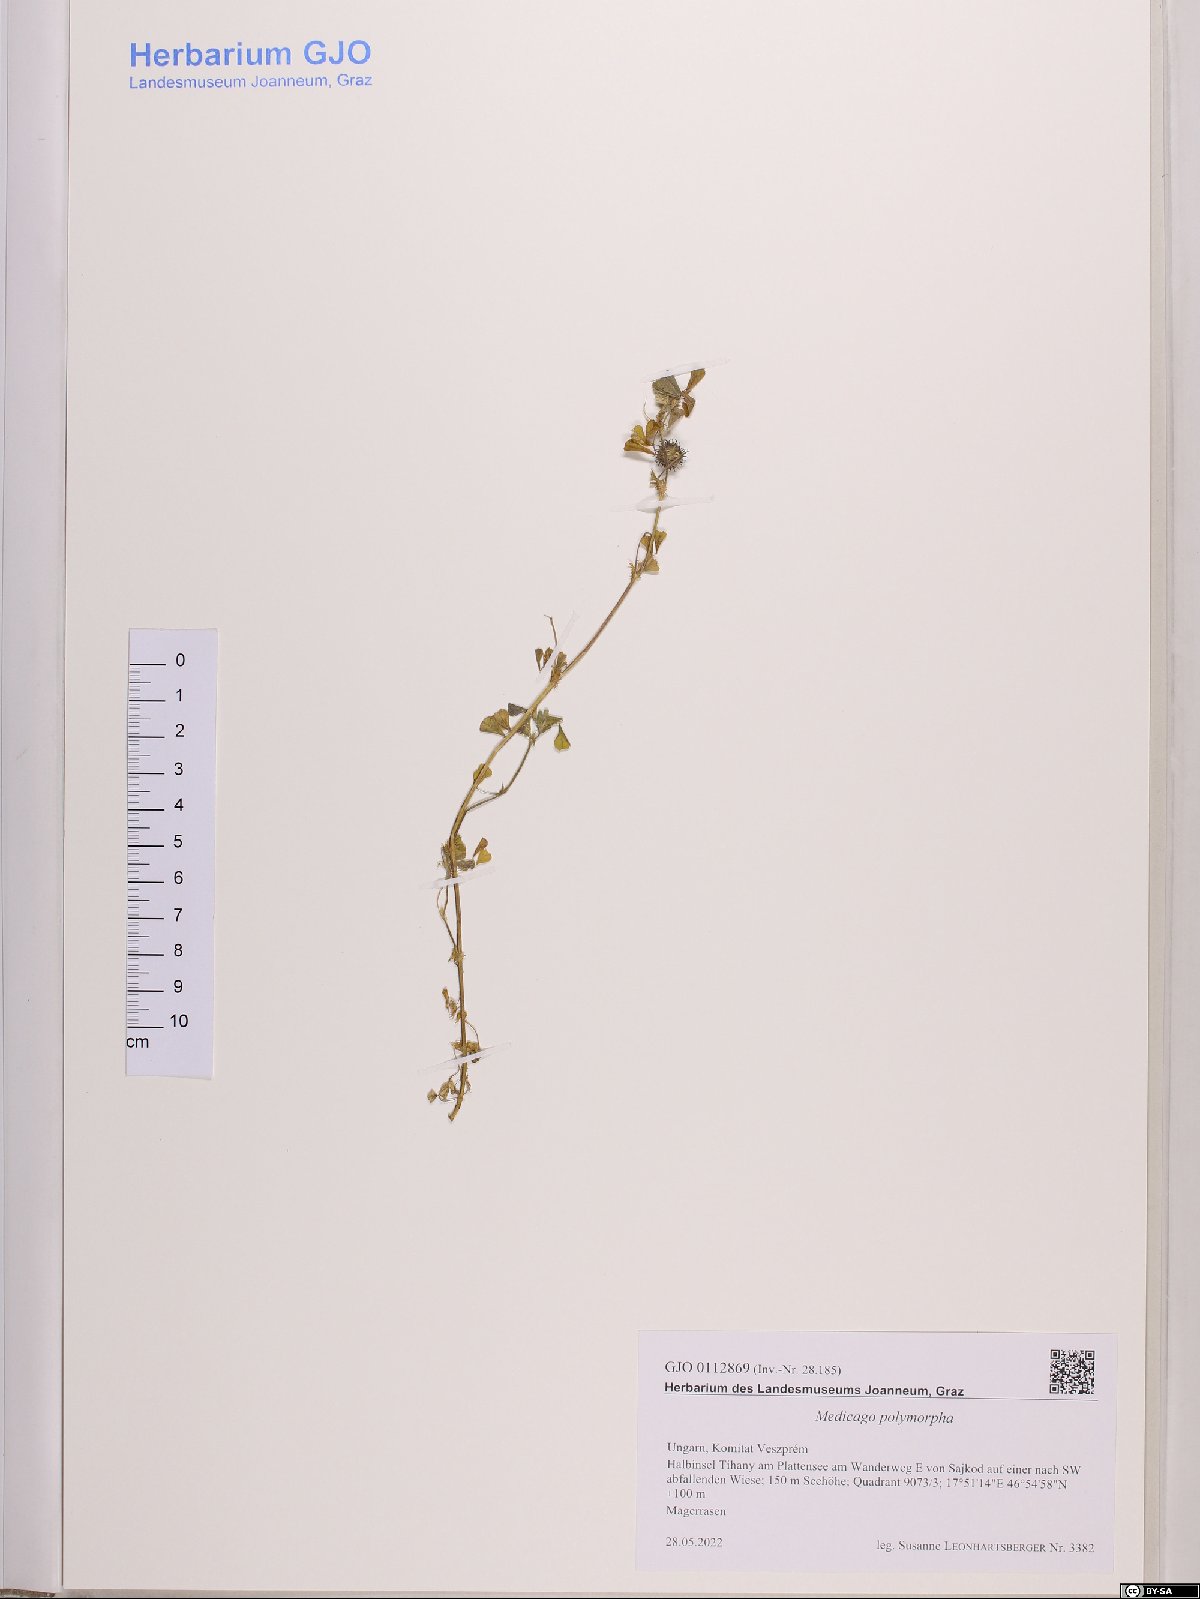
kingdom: Plantae
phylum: Tracheophyta
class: Magnoliopsida
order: Fabales
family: Fabaceae
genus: Medicago
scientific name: Medicago polymorpha
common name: Burclover
